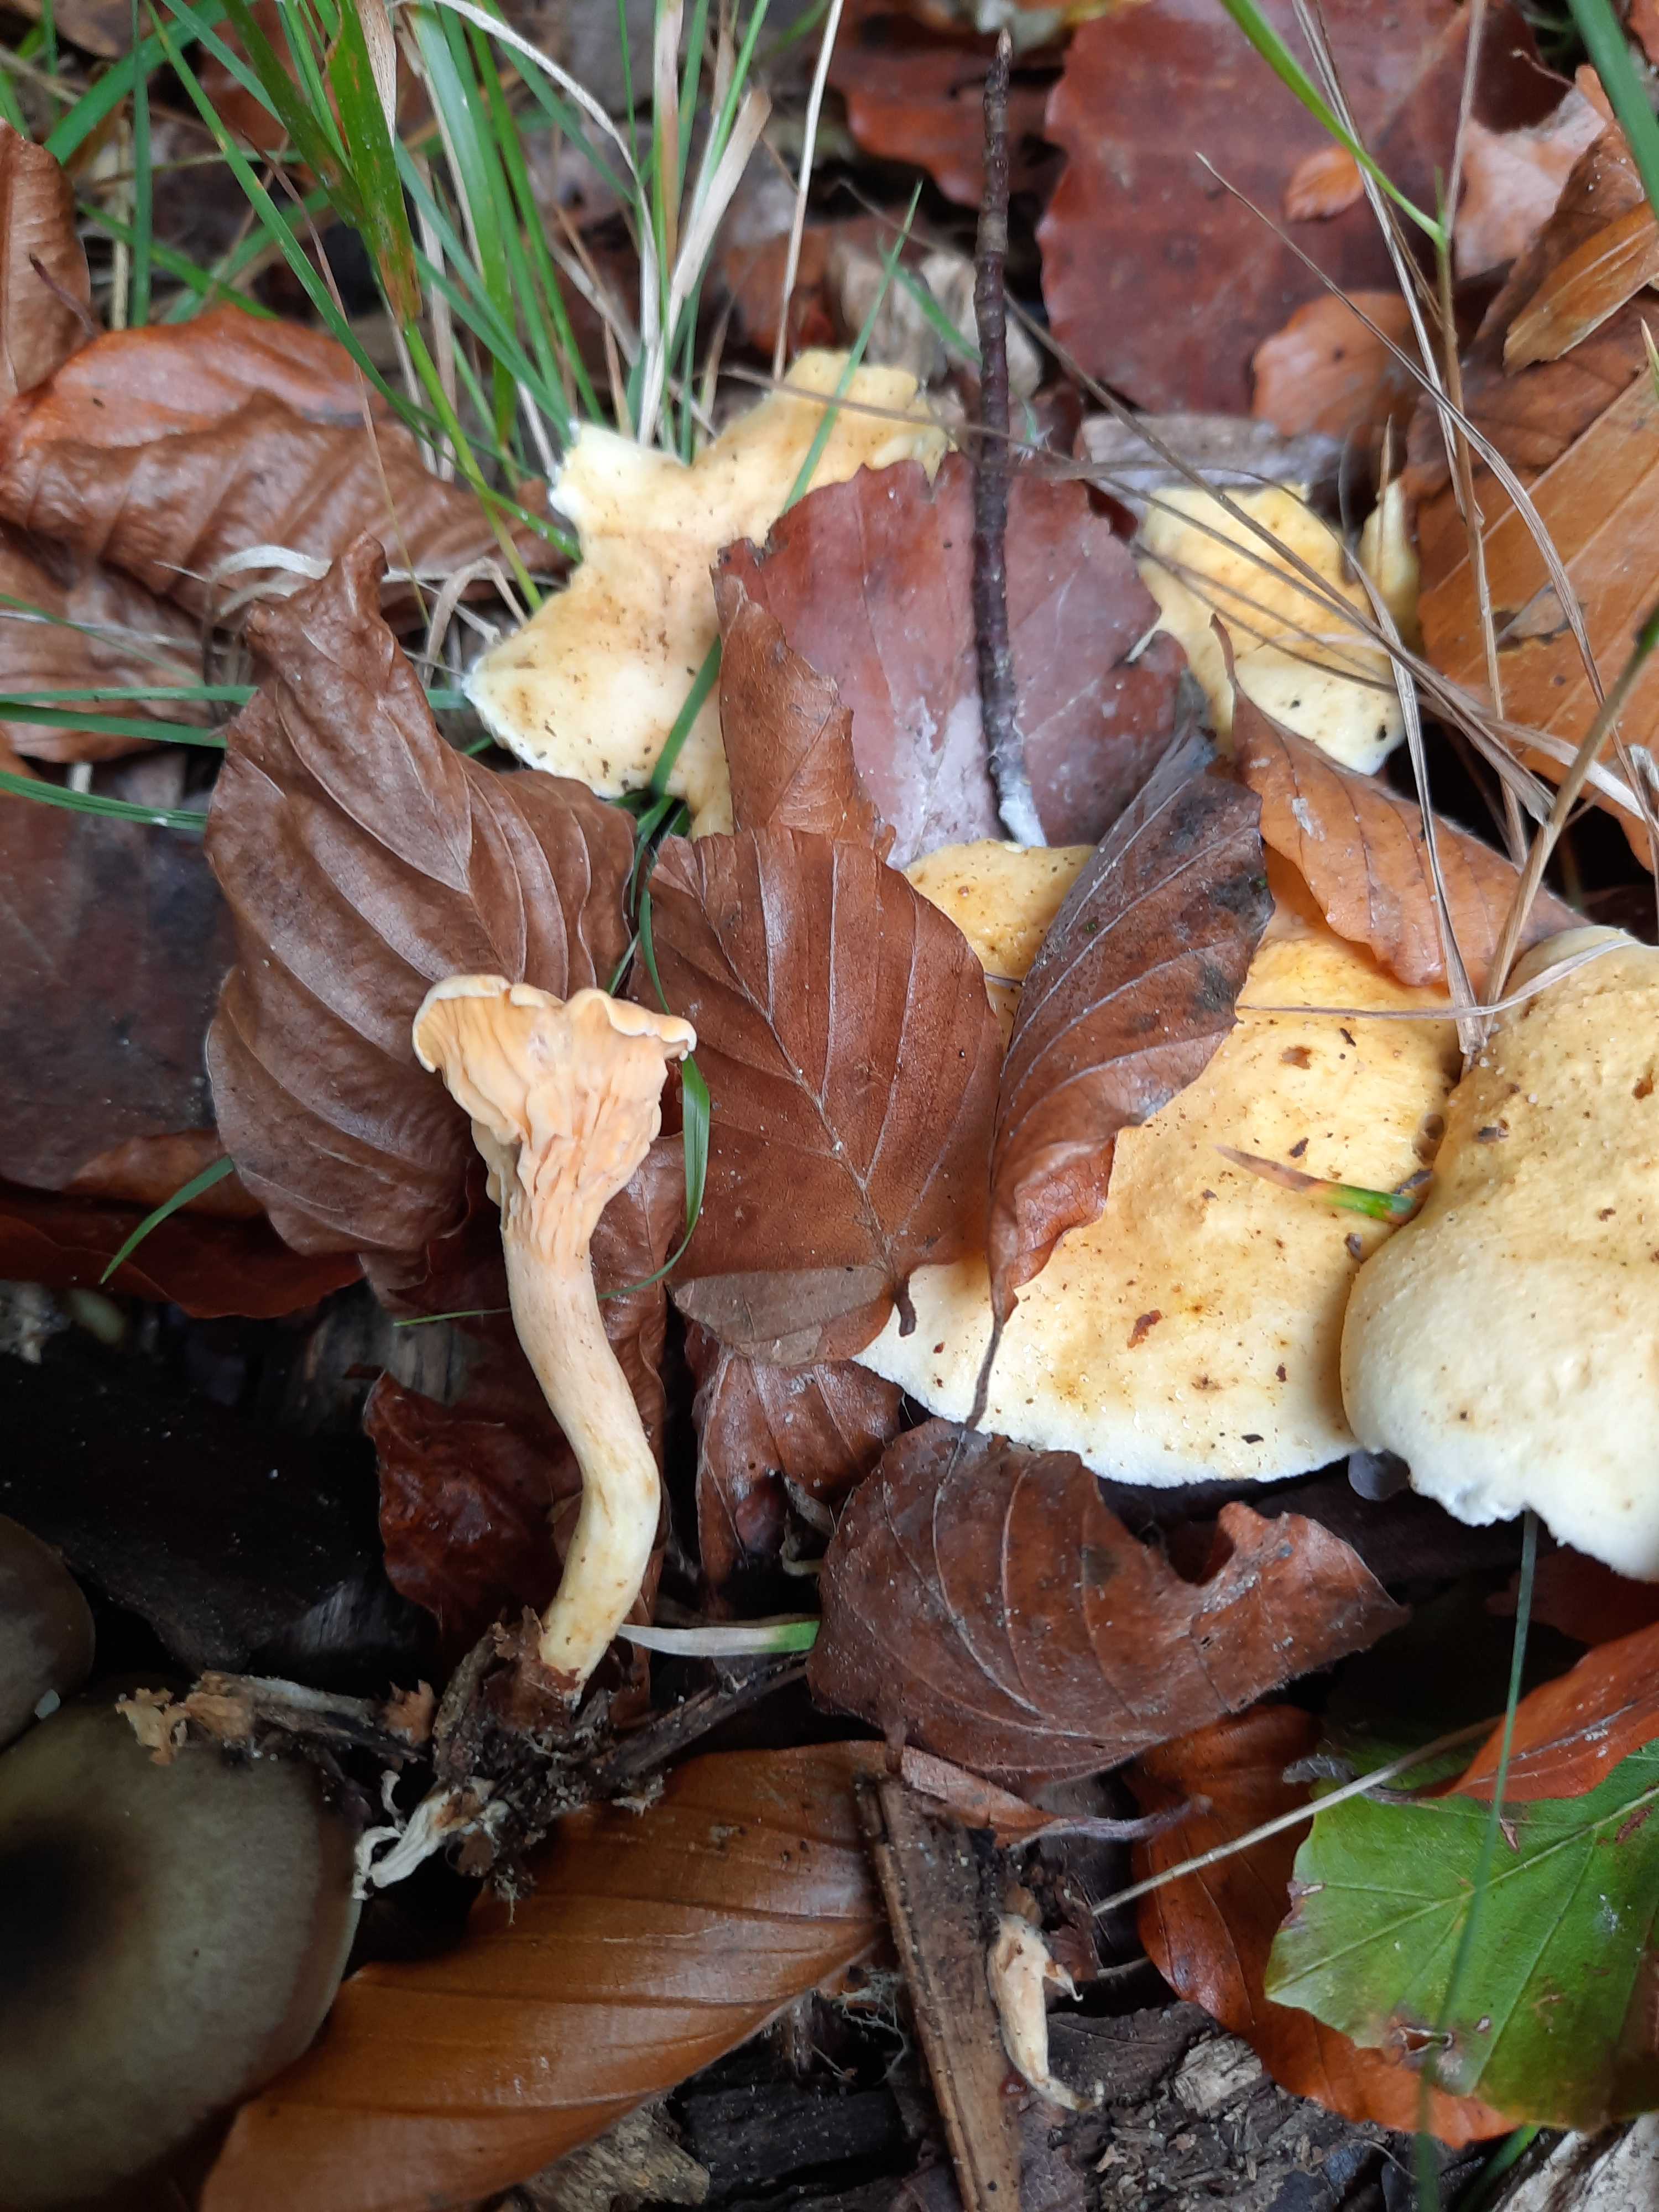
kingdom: Fungi
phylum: Basidiomycota
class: Agaricomycetes
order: Boletales
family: Hygrophoropsidaceae
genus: Hygrophoropsis
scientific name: Hygrophoropsis aurantiaca
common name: almindelig orangekantarel
